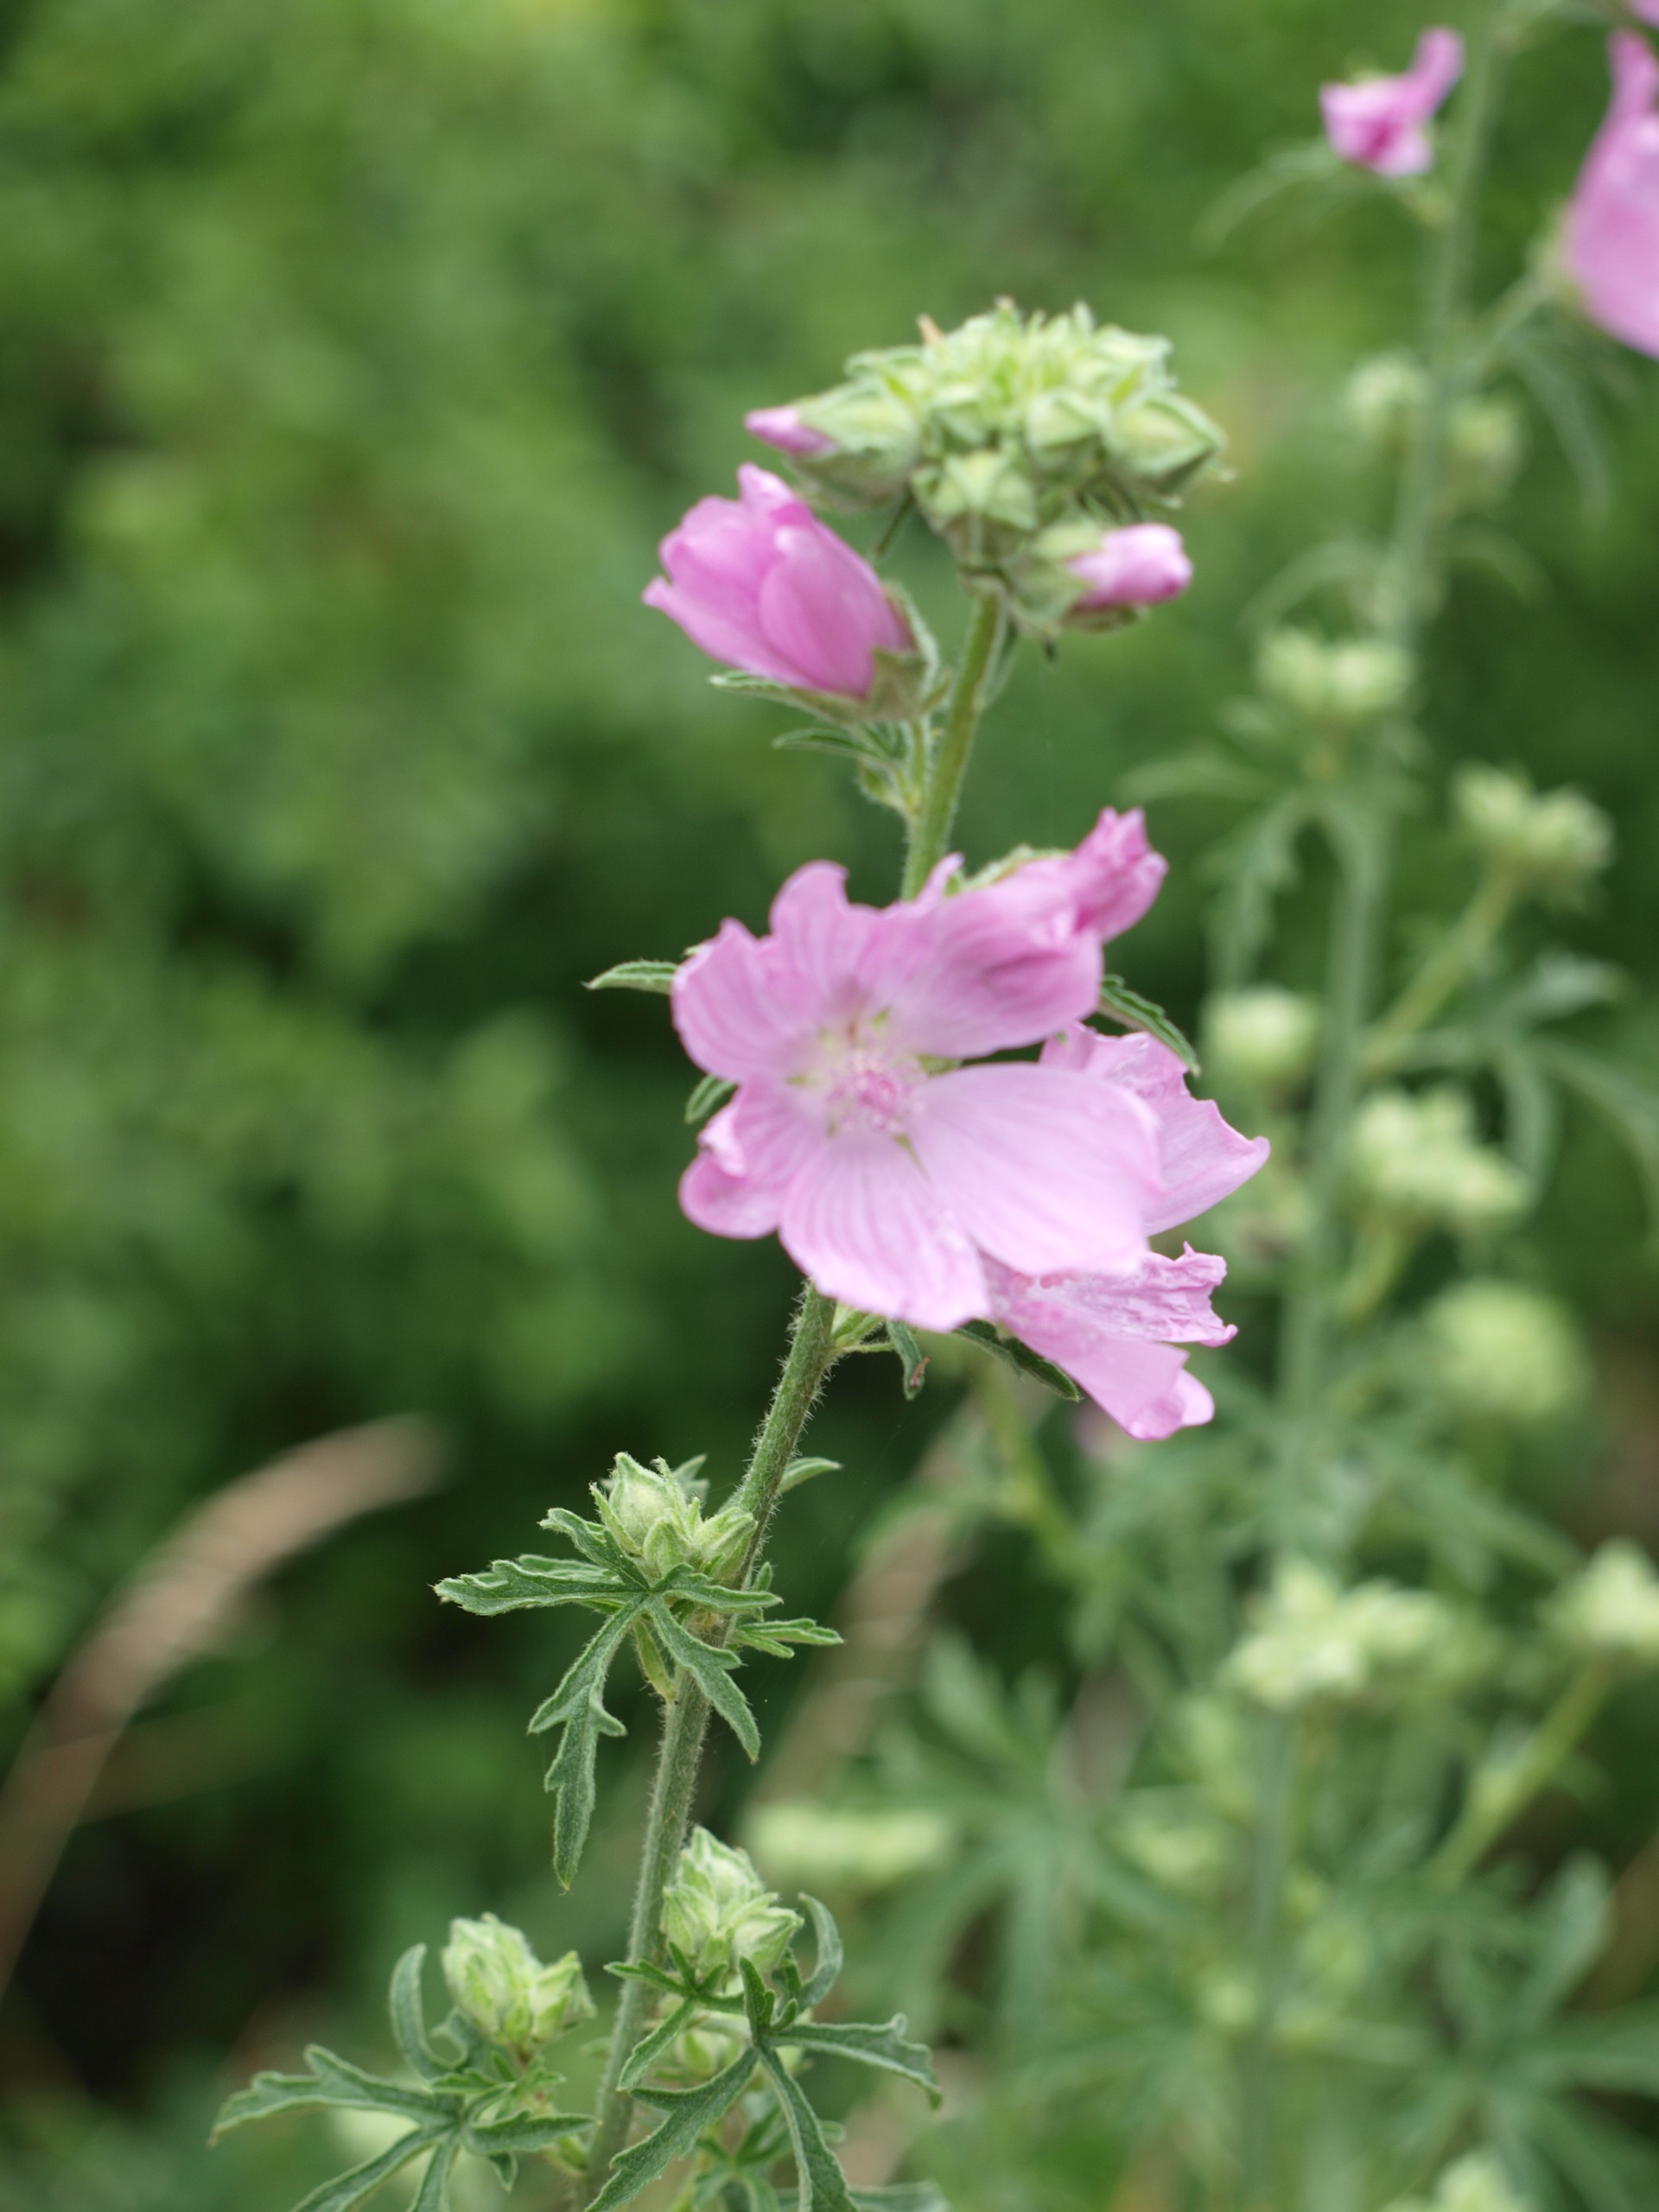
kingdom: Plantae
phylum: Tracheophyta
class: Magnoliopsida
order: Malvales
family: Malvaceae
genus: Malva
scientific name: Malva alcea
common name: Rosen-katost
